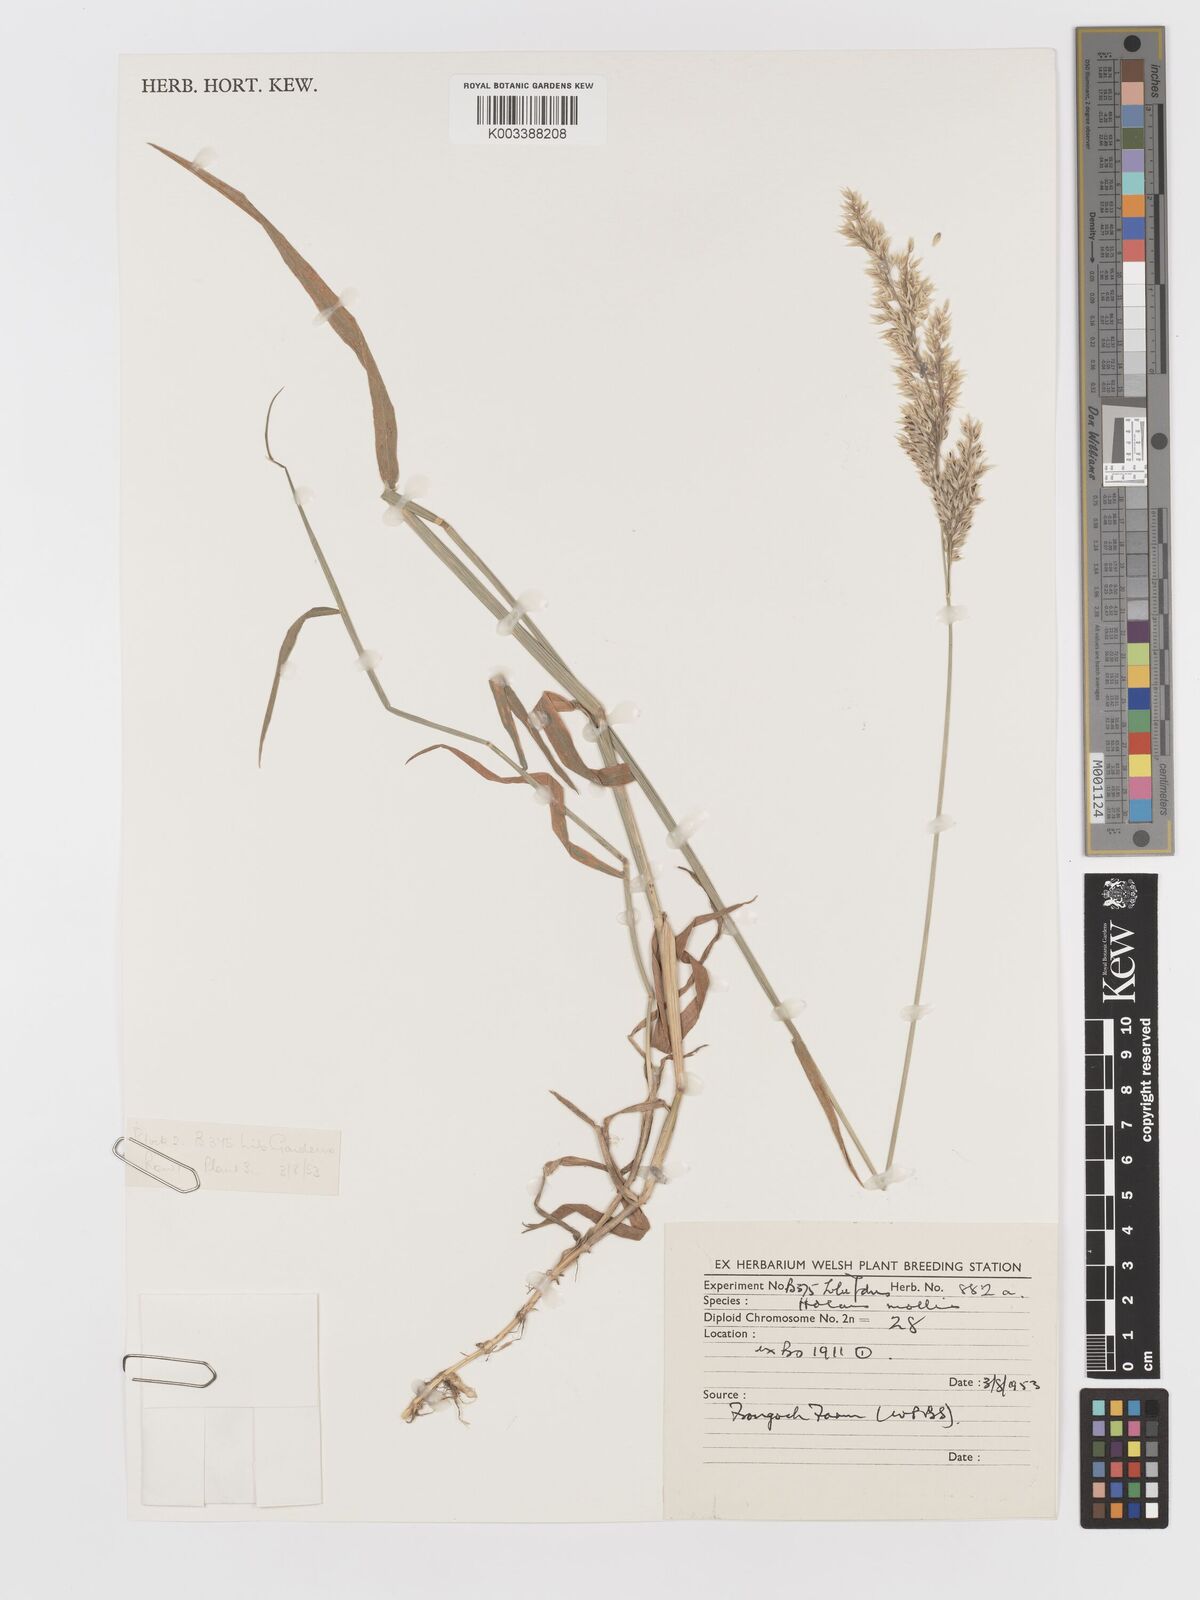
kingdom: Plantae
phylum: Tracheophyta
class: Liliopsida
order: Poales
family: Poaceae
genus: Holcus
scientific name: Holcus mollis
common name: Creeping velvetgrass
